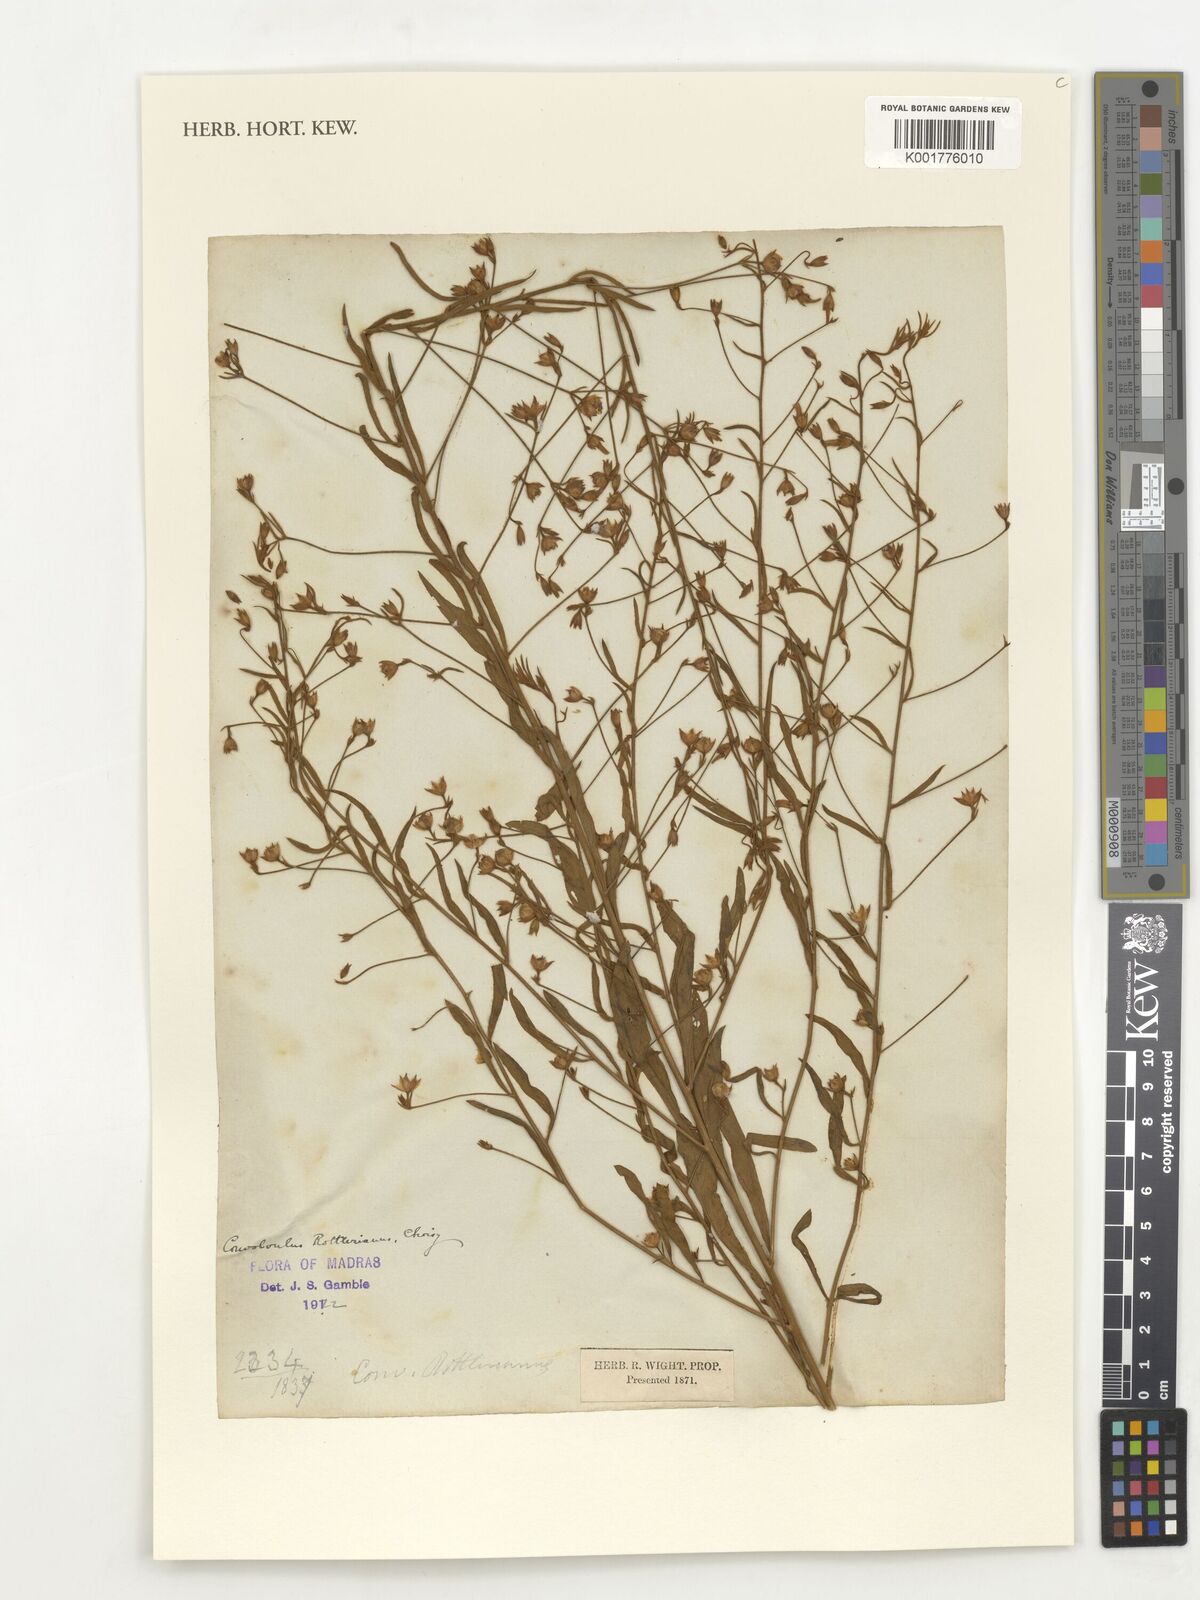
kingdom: Plantae
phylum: Tracheophyta
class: Magnoliopsida
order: Solanales
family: Convolvulaceae
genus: Convolvulus
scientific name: Convolvulus rottlerianus
